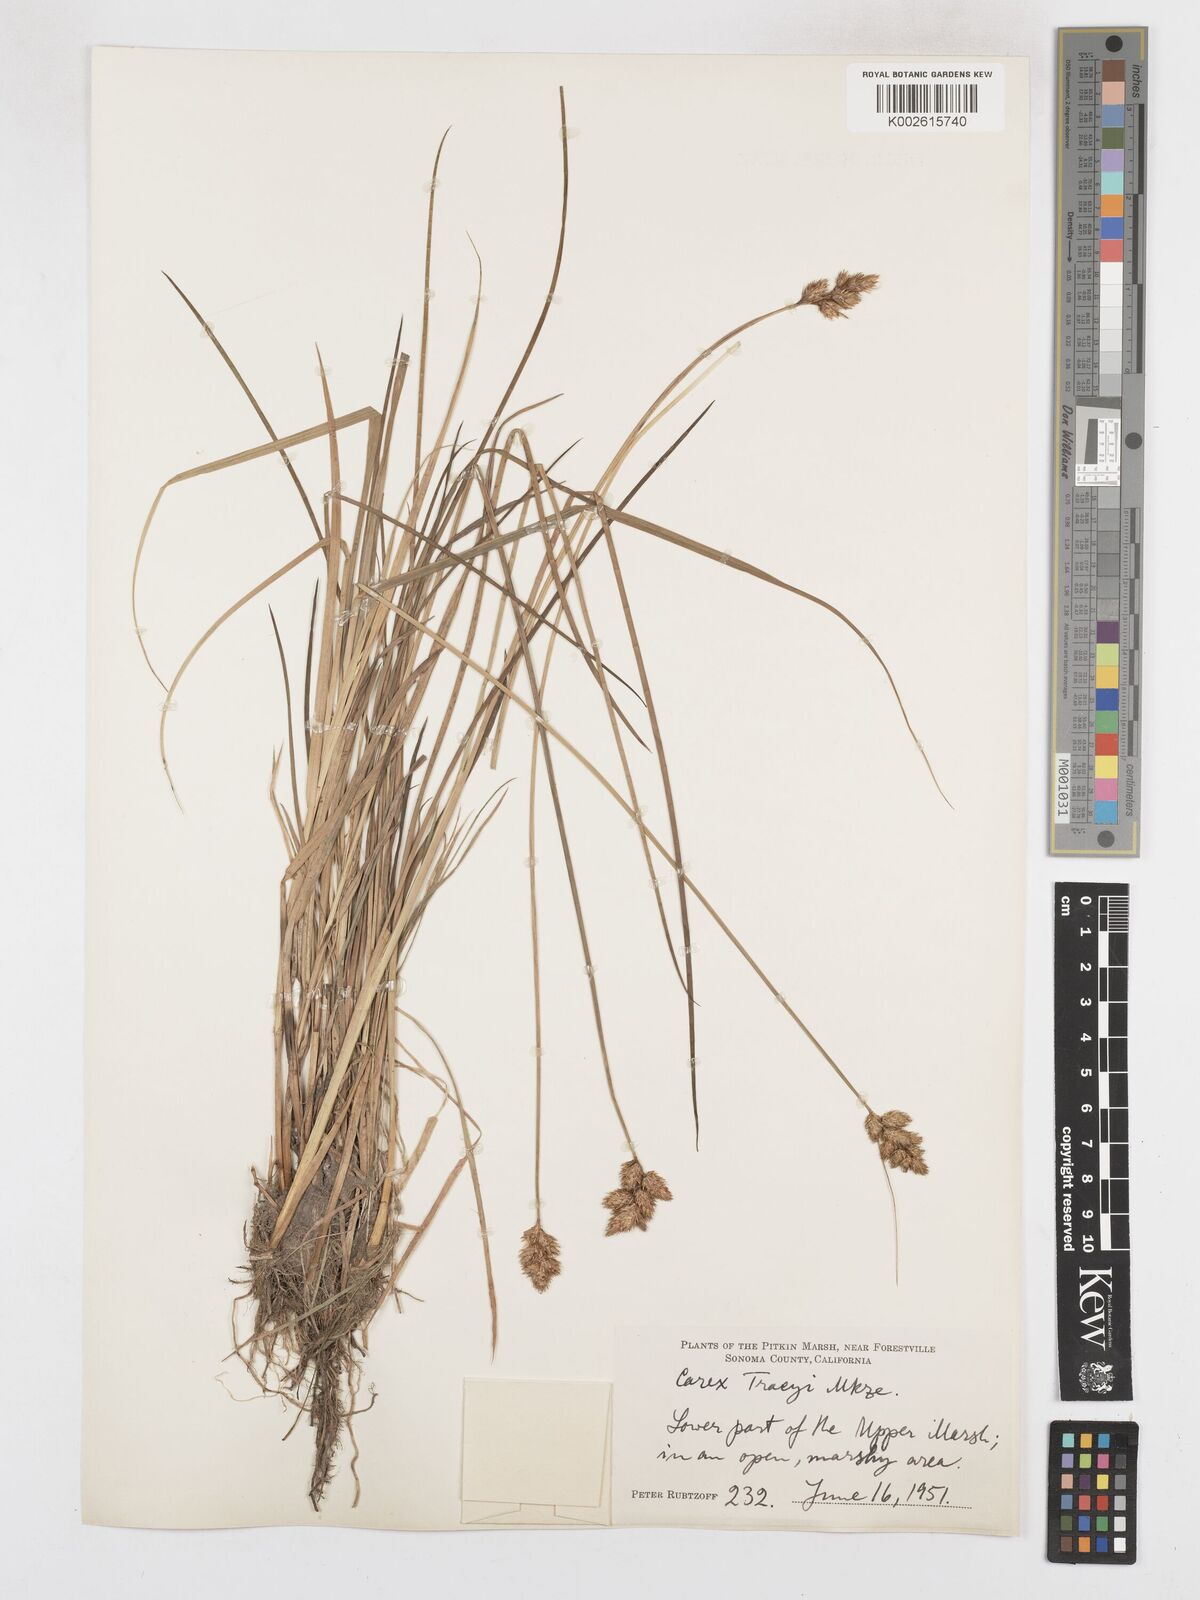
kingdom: Plantae
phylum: Tracheophyta
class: Liliopsida
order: Poales
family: Cyperaceae
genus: Carex
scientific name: Carex leporina
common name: Oval sedge
